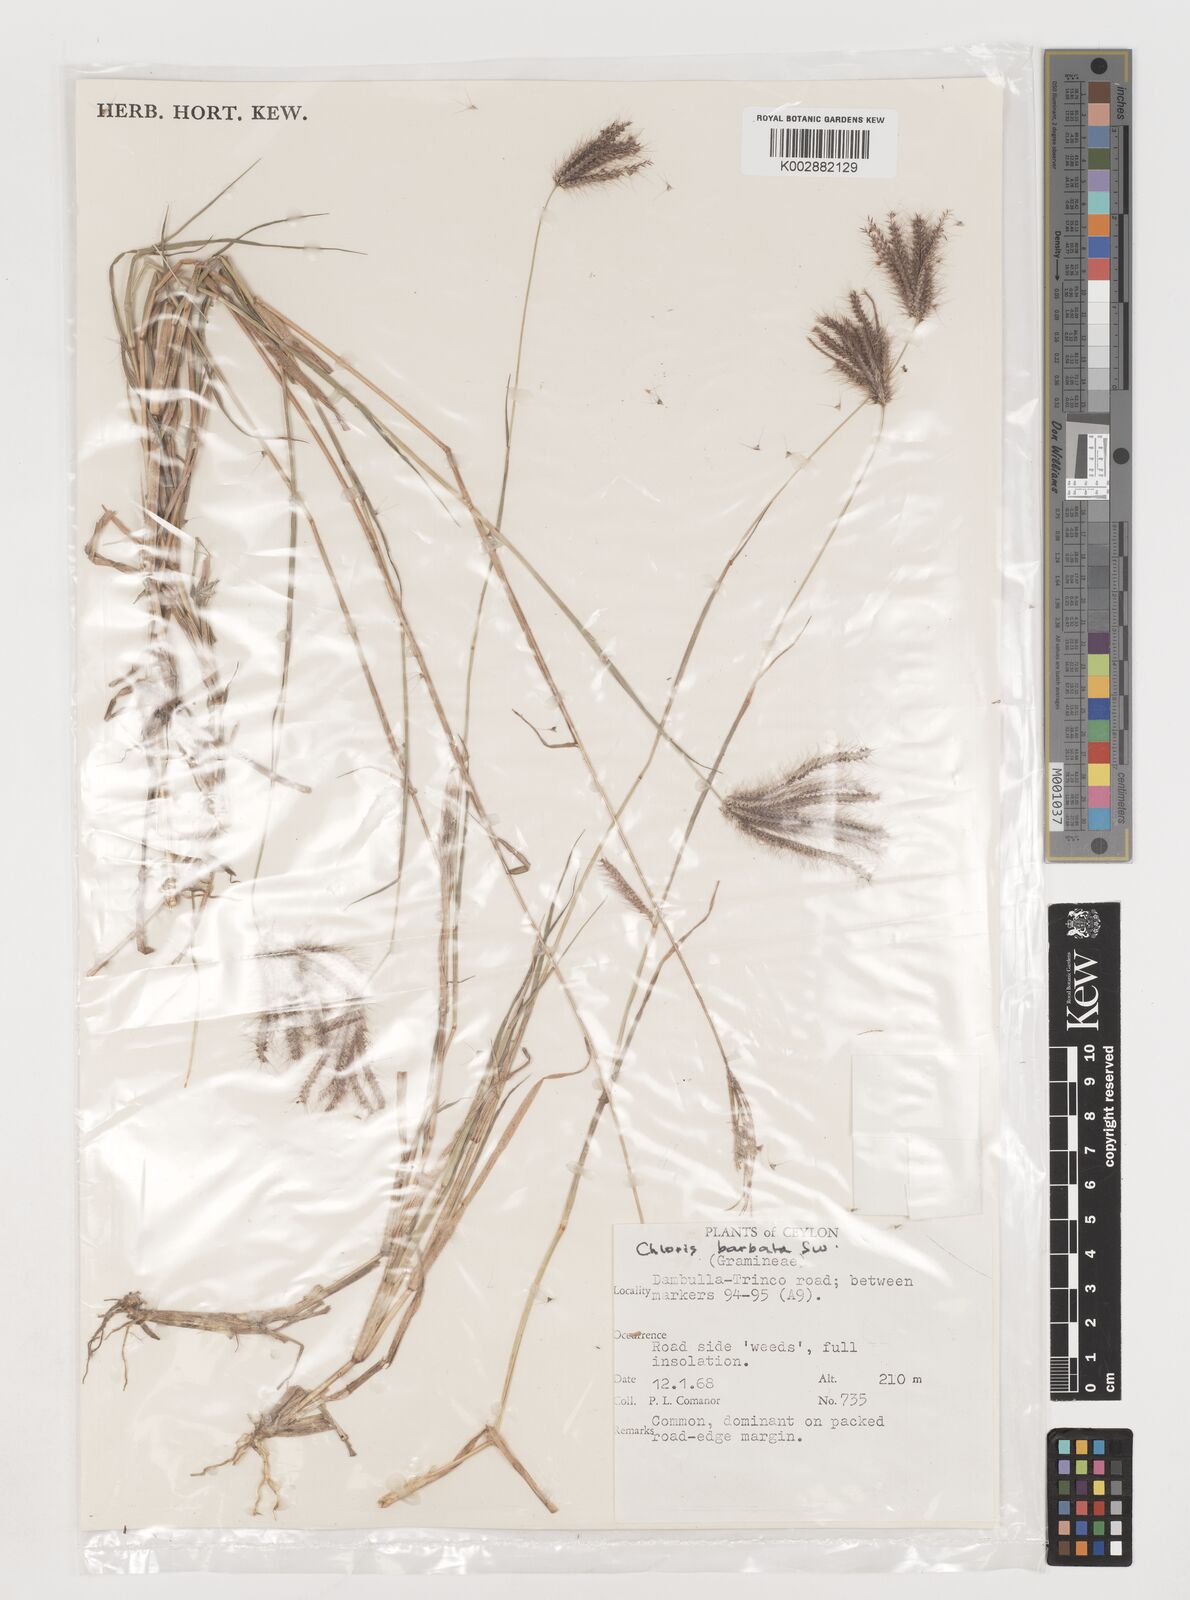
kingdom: Plantae
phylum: Tracheophyta
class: Liliopsida
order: Poales
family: Poaceae
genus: Chloris
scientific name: Chloris barbata
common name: Swollen fingergrass
